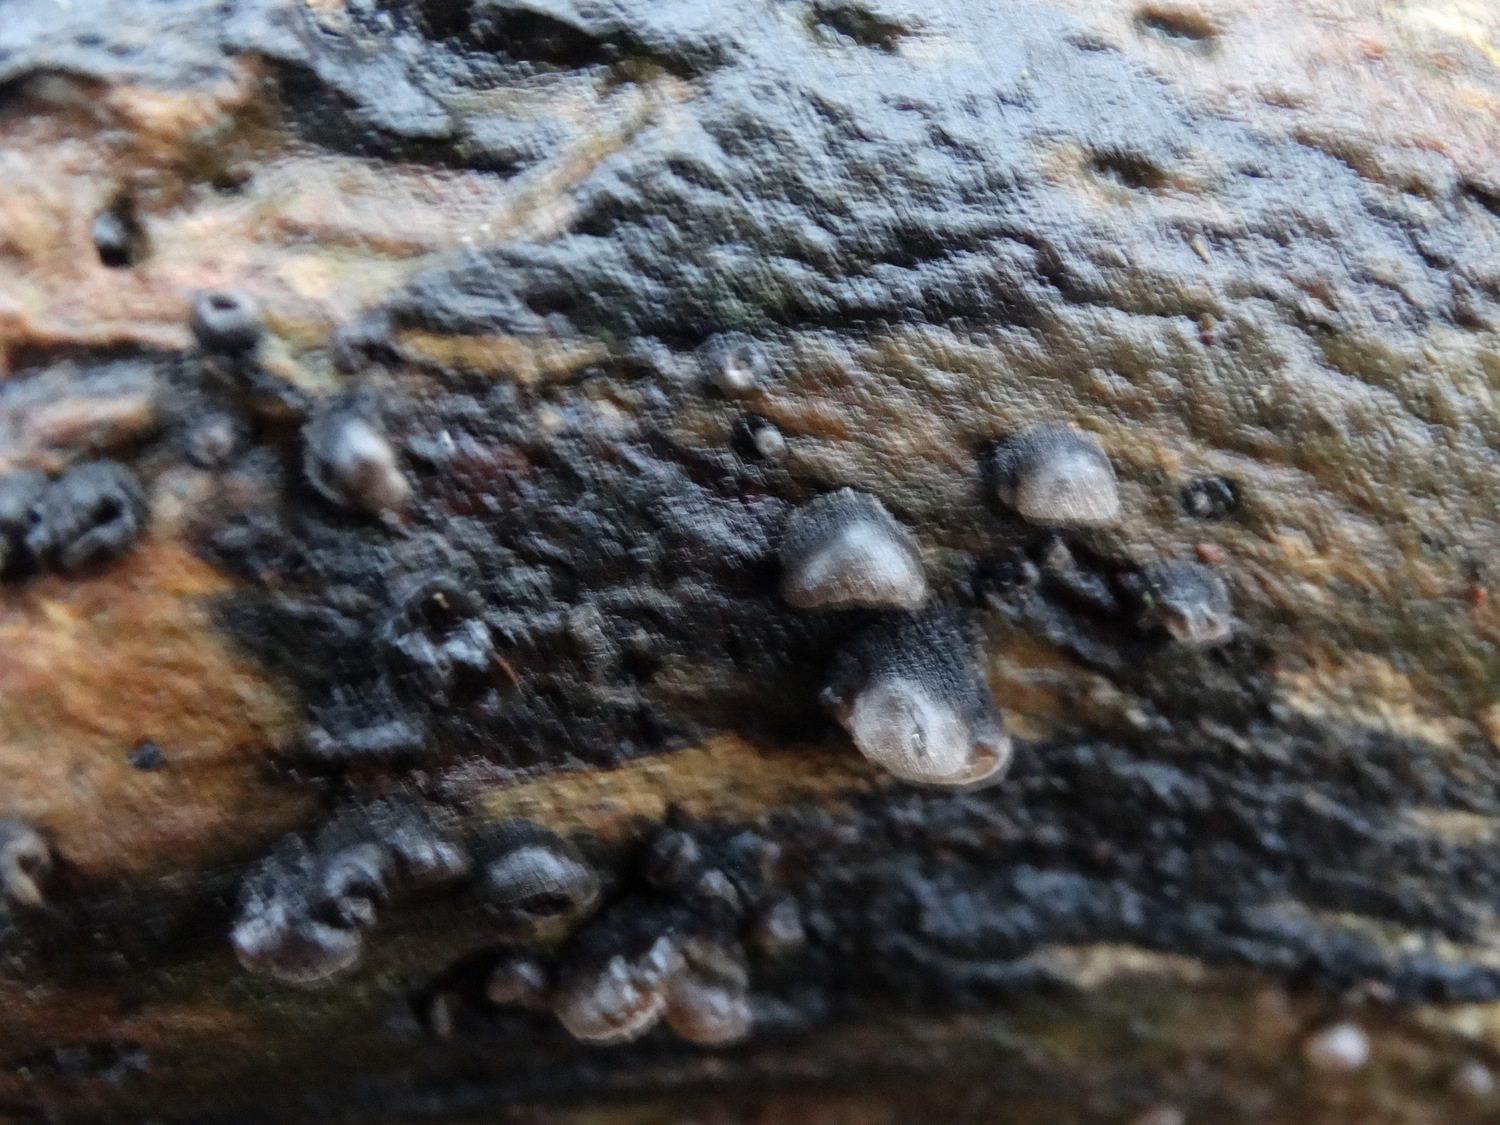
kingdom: Fungi
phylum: Basidiomycota
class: Agaricomycetes
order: Agaricales
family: Pleurotaceae
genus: Resupinatus
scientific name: Resupinatus trichotis
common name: mørkfiltet barkhat
